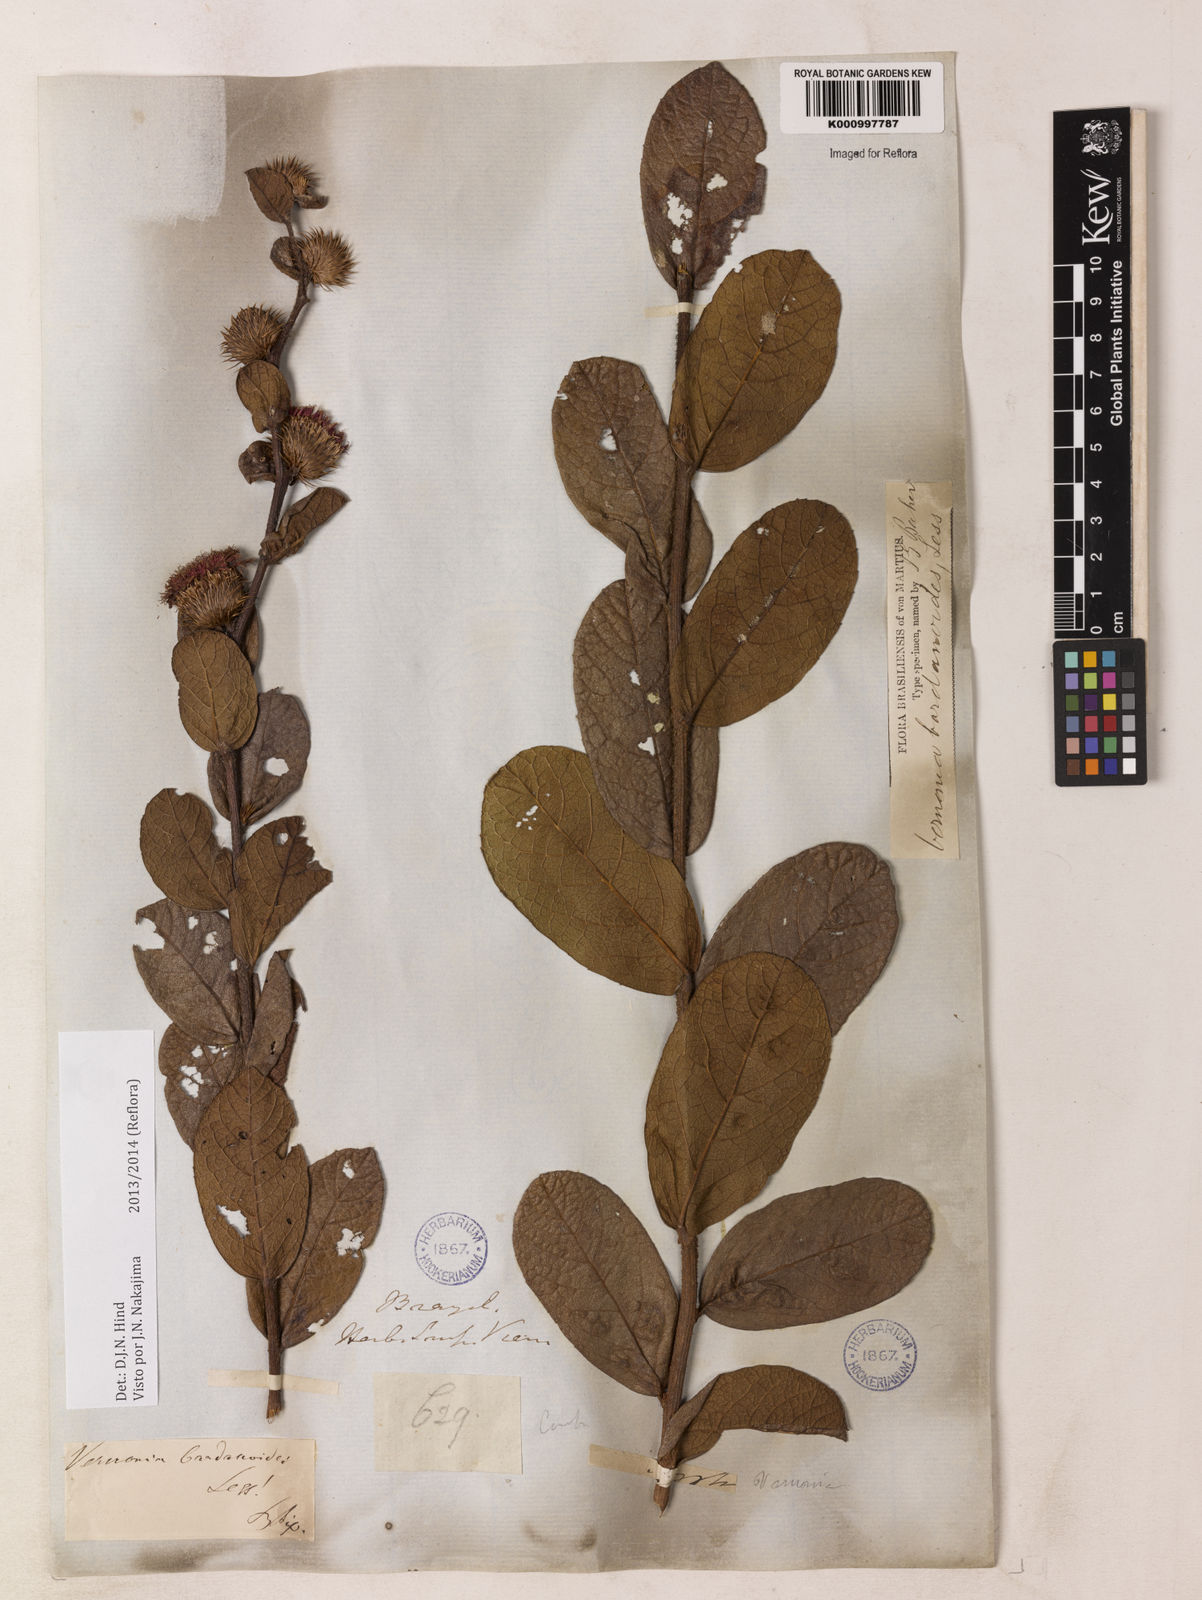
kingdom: Plantae
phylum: Tracheophyta
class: Magnoliopsida
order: Asterales
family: Asteraceae
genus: Lessingianthus
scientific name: Lessingianthus bardanioides
